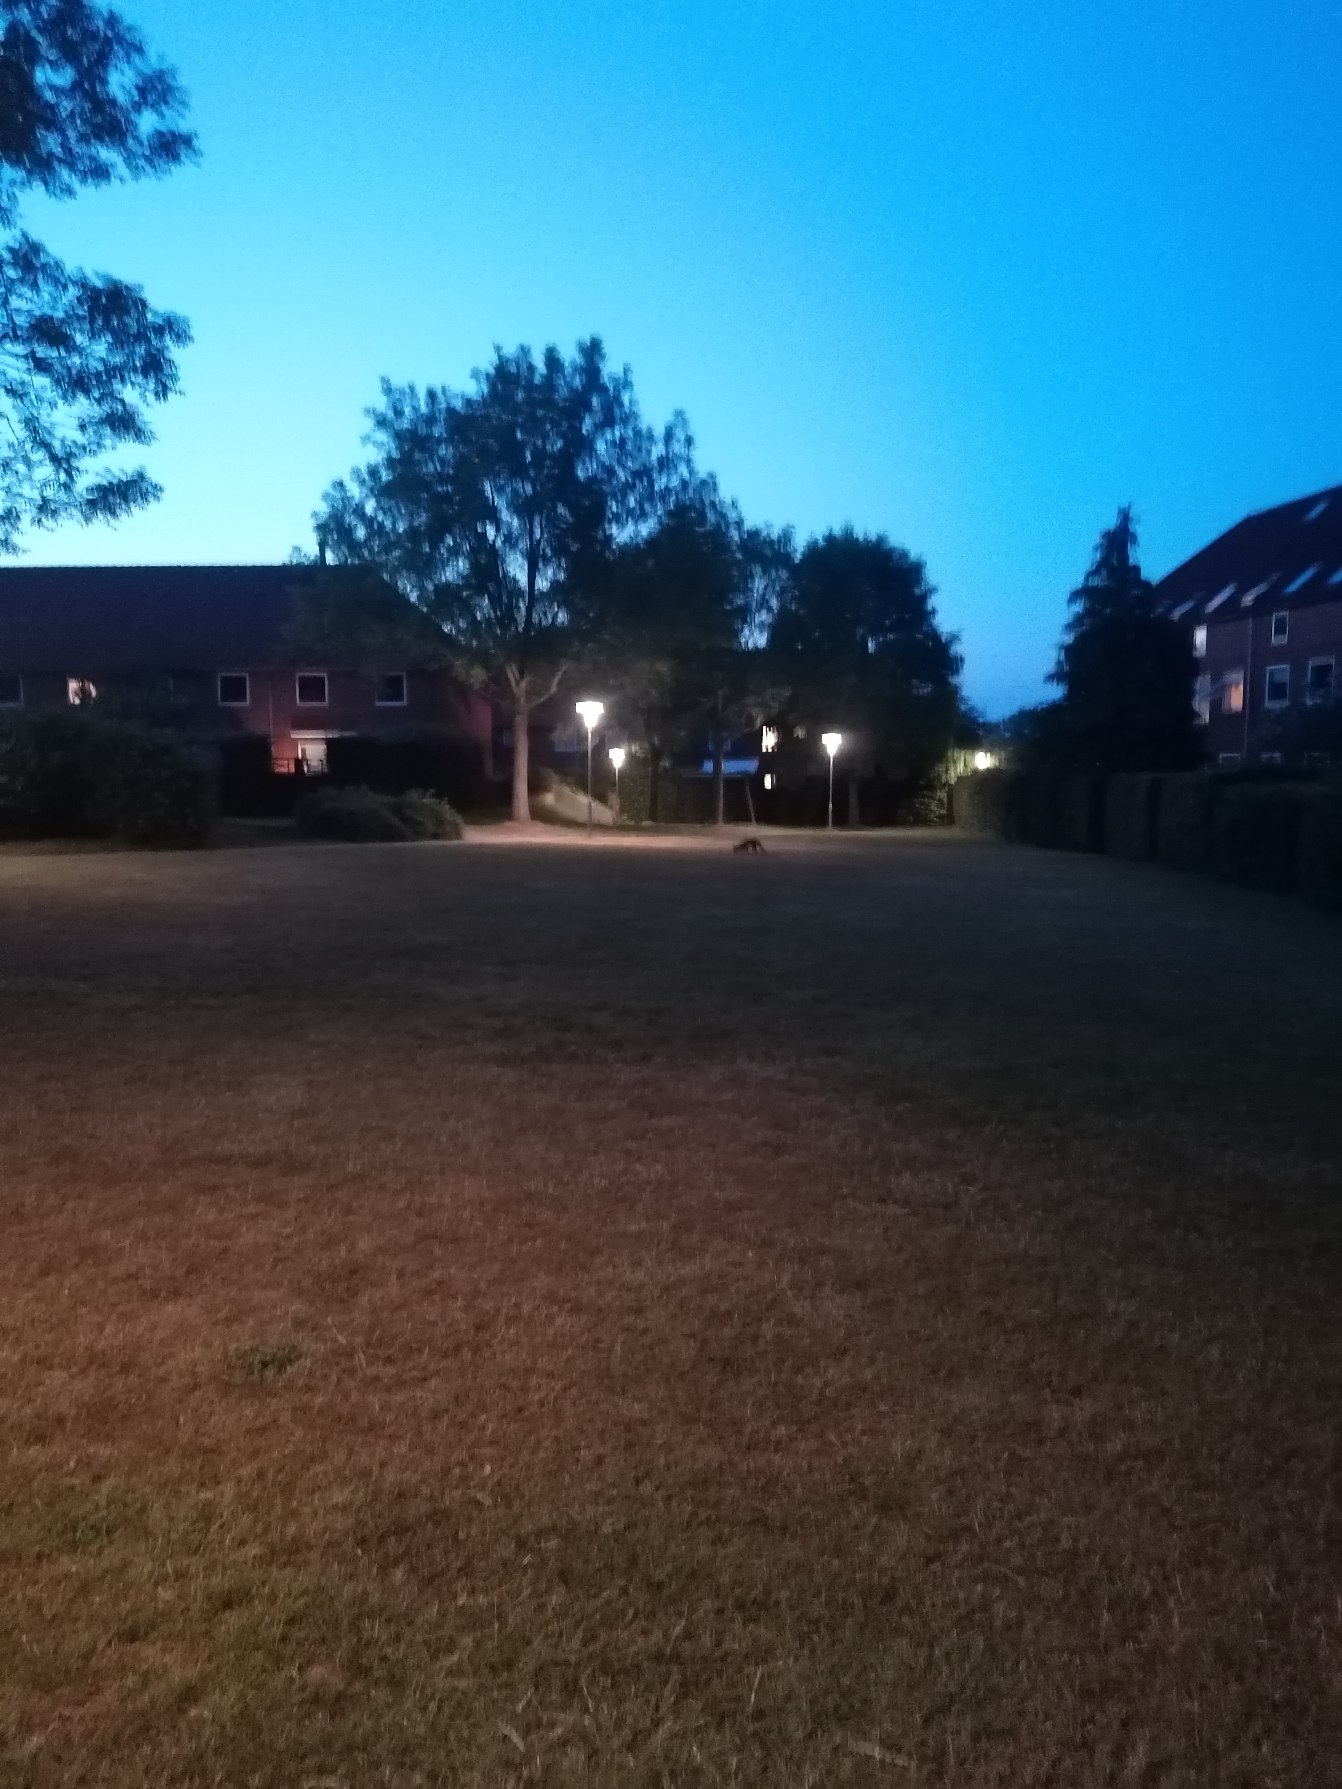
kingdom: Animalia
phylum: Chordata
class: Mammalia
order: Carnivora
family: Canidae
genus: Vulpes
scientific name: Vulpes vulpes
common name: Ræv
